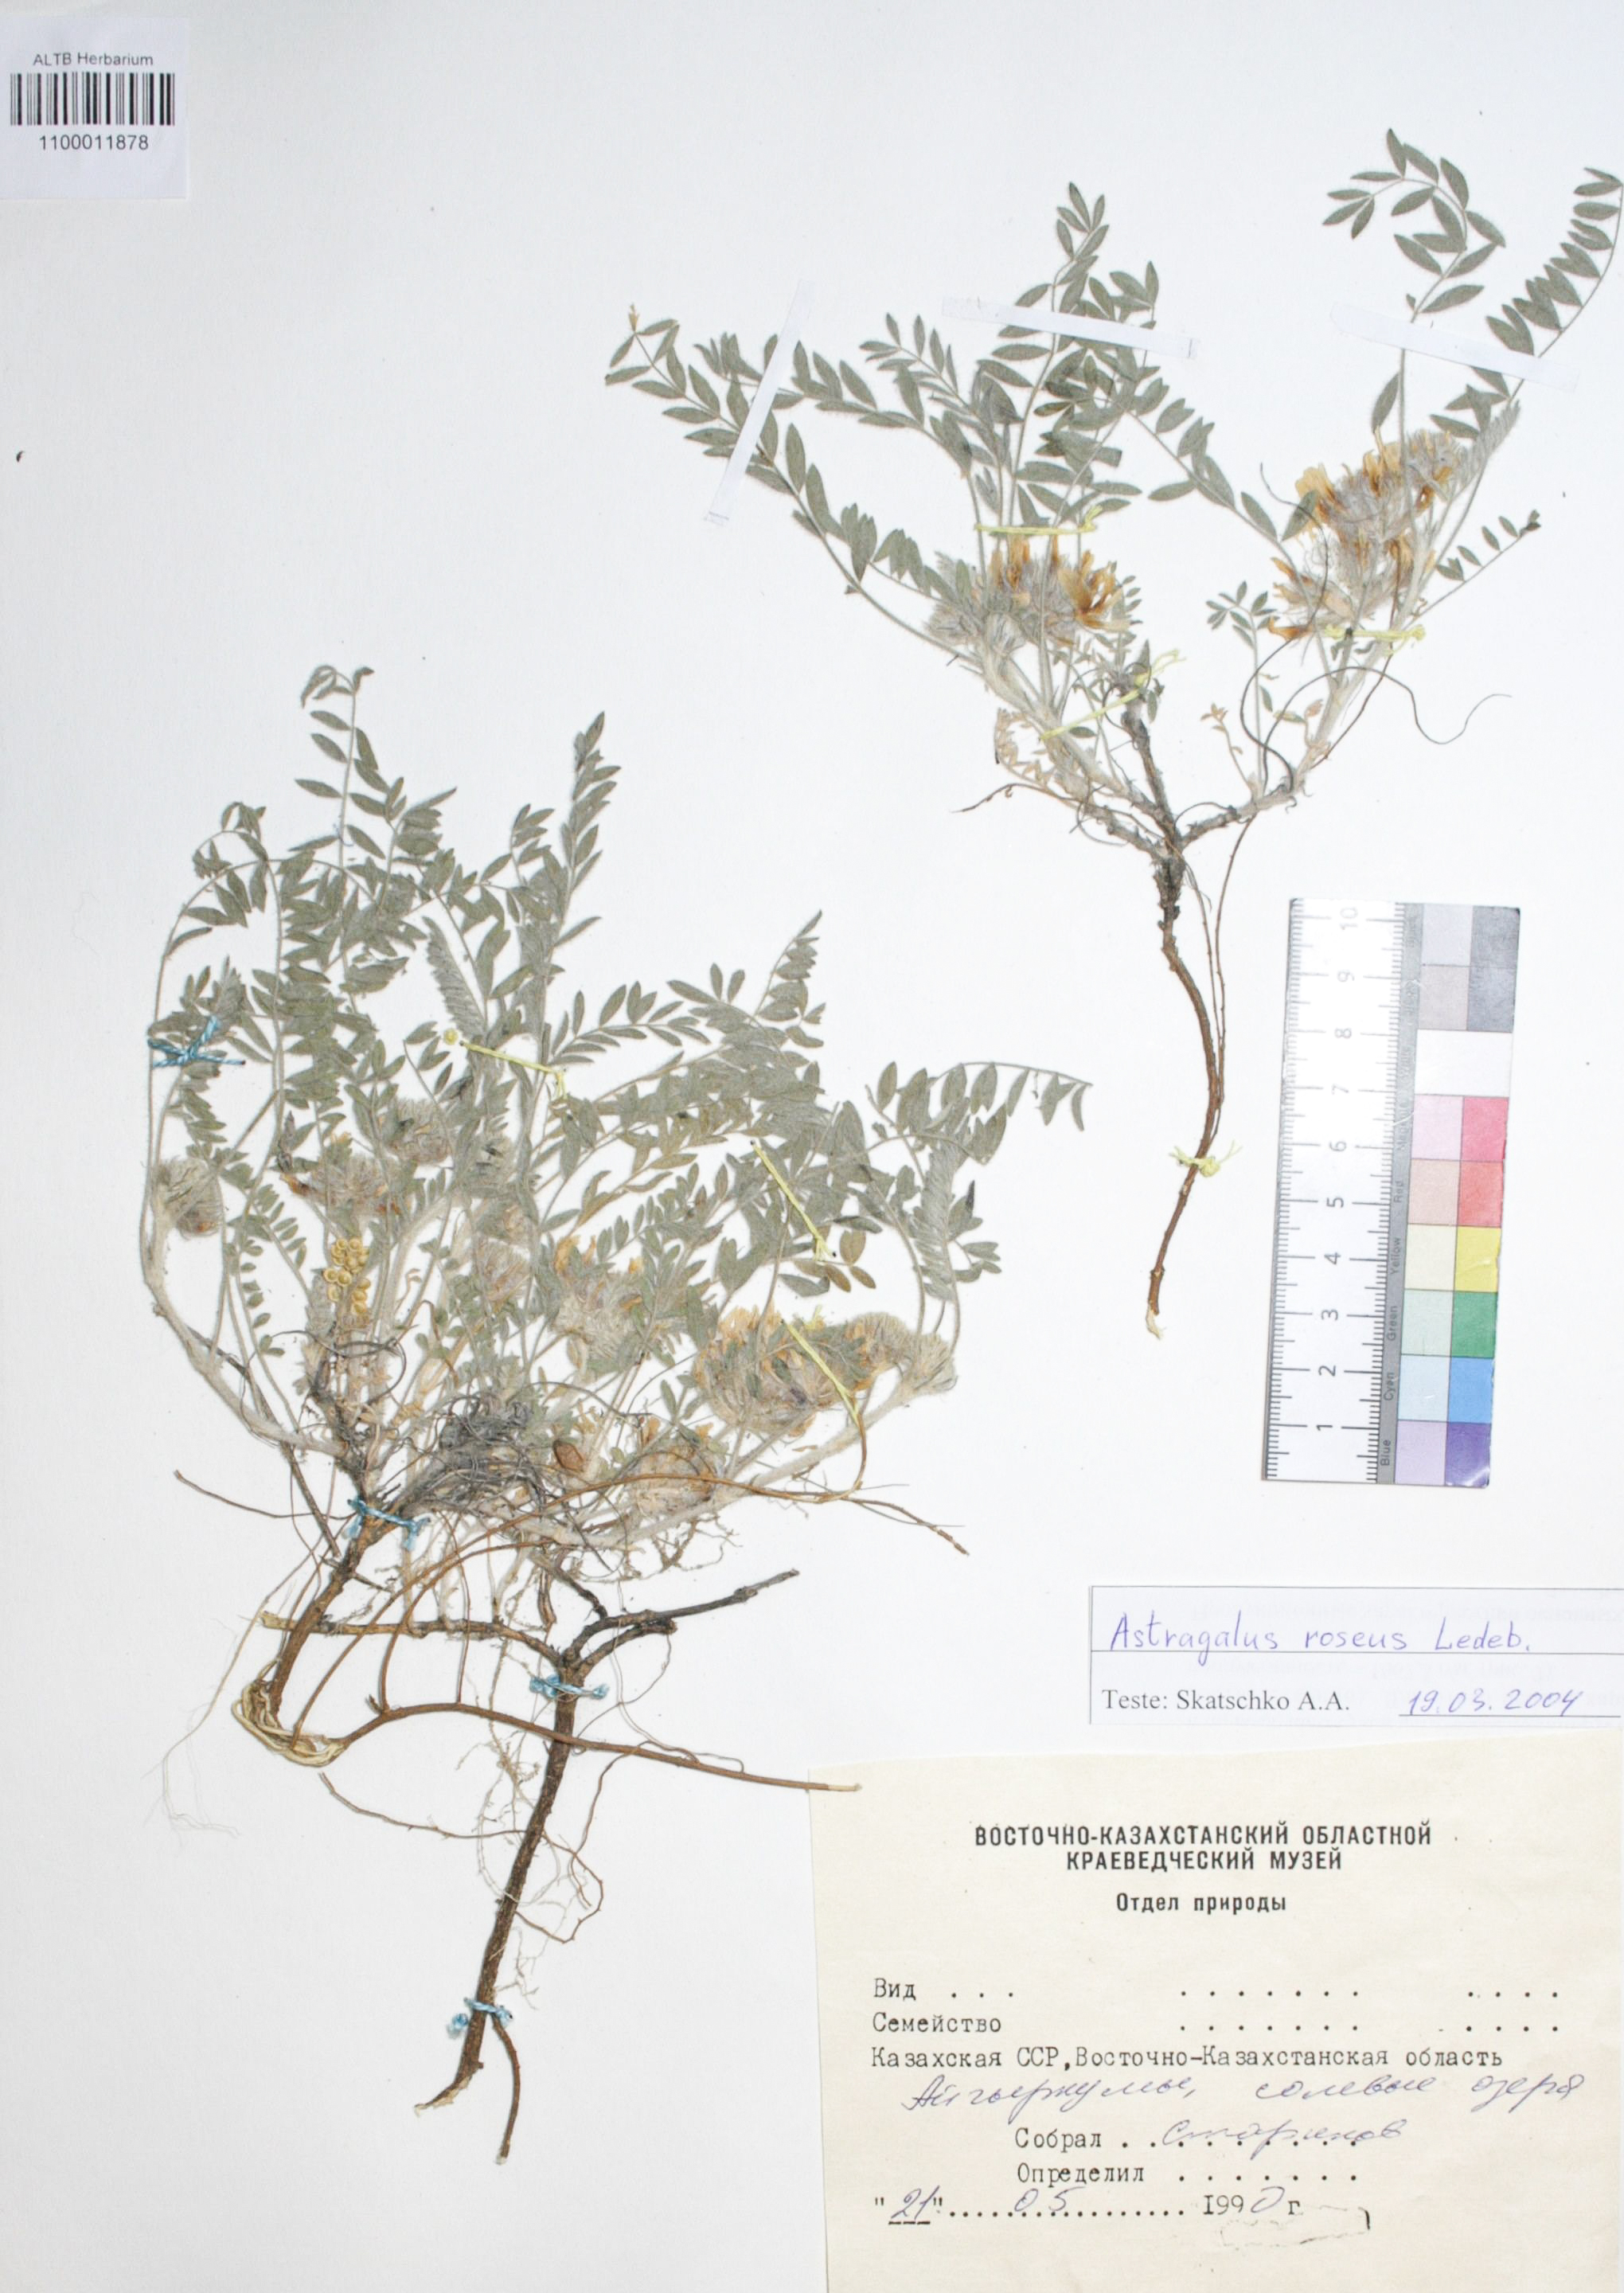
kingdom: Plantae
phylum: Tracheophyta
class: Magnoliopsida
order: Fabales
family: Fabaceae
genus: Astragalus
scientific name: Astragalus roseus
